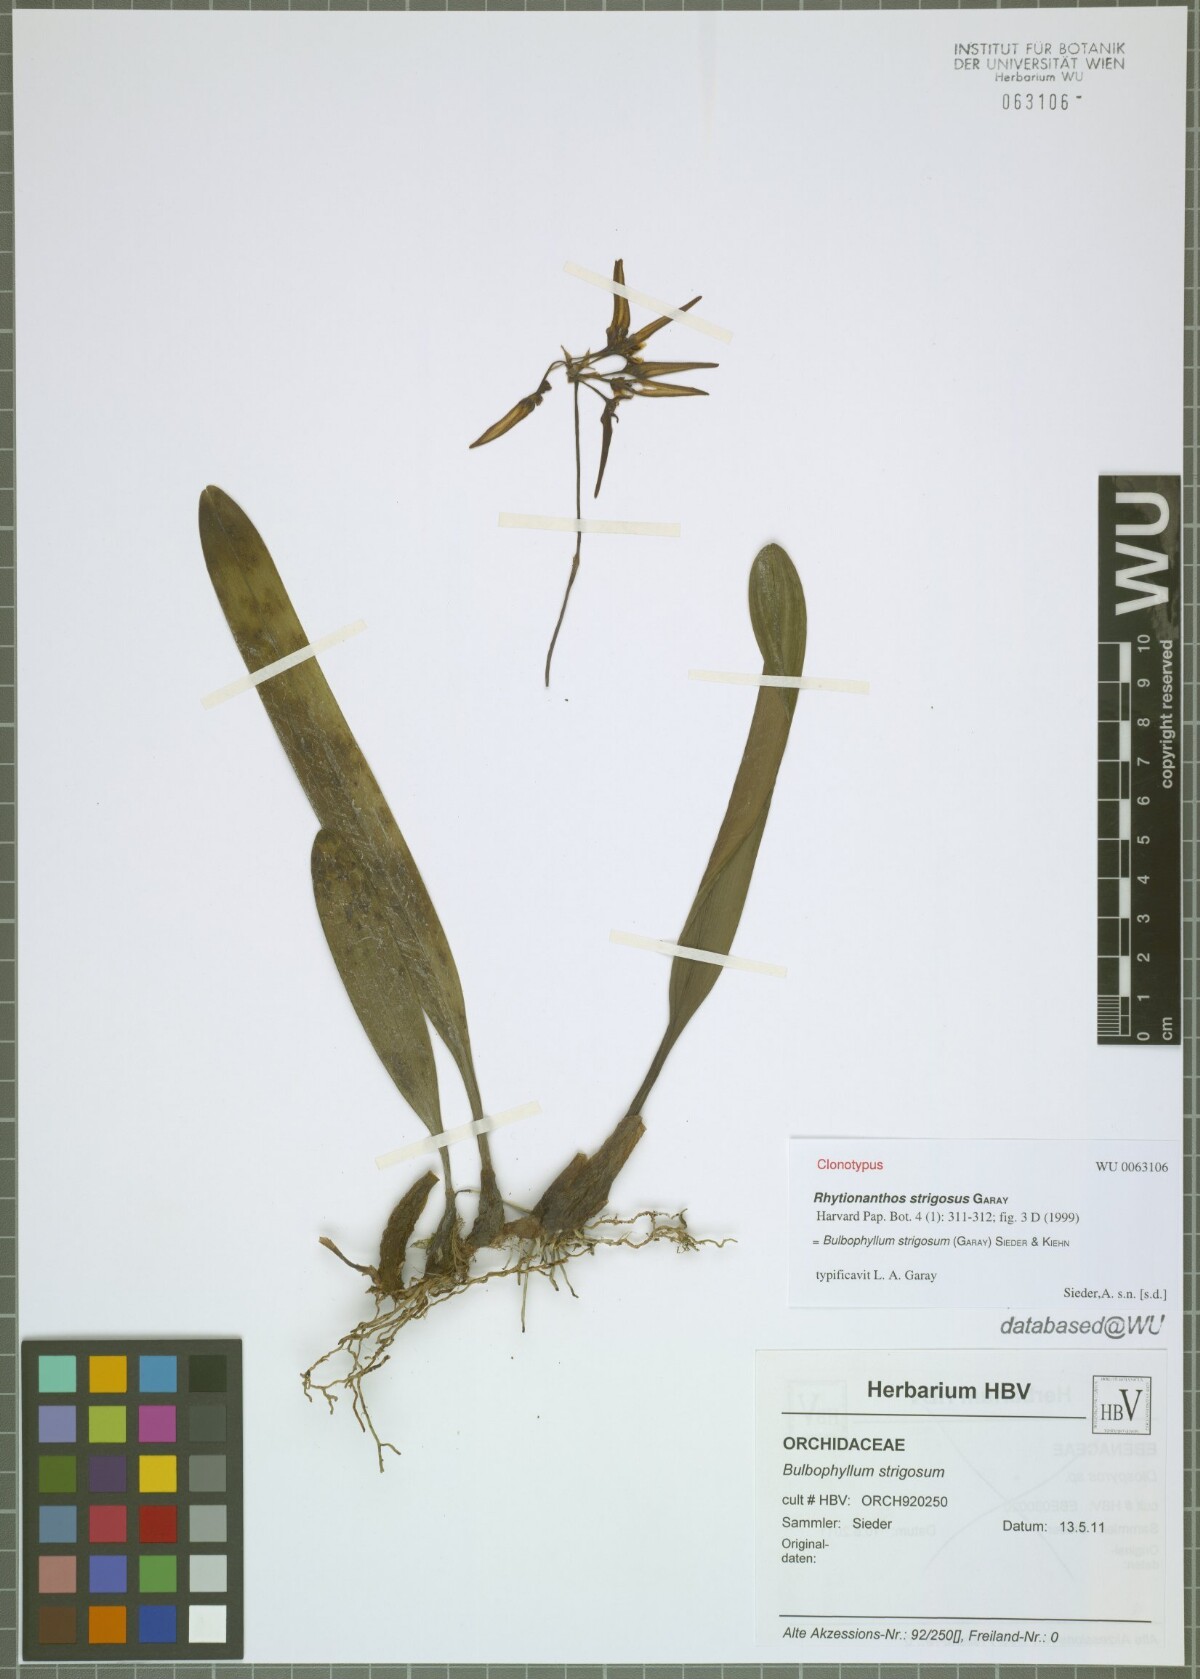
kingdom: Plantae
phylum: Tracheophyta
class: Liliopsida
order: Asparagales
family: Orchidaceae
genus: Bulbophyllum
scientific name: Bulbophyllum strigosum
